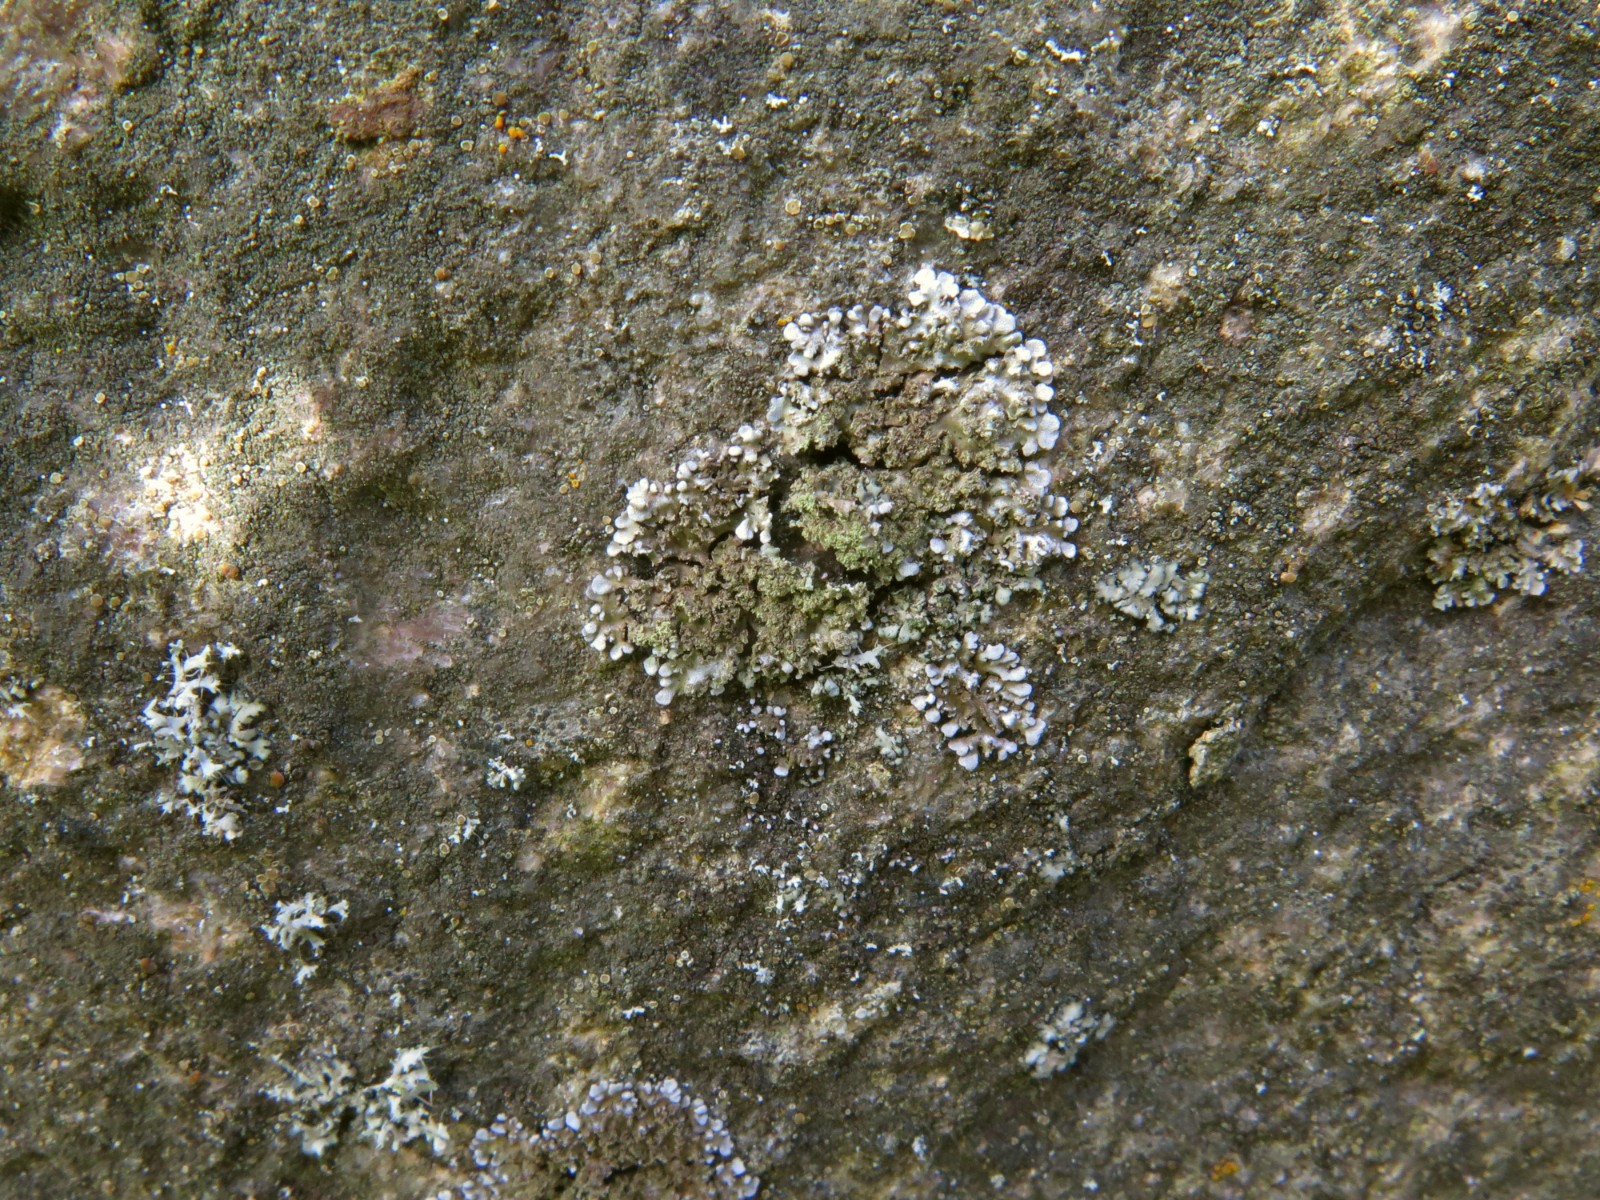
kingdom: Fungi
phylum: Ascomycota
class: Lecanoromycetes
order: Caliciales
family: Physciaceae
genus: Physconia
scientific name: Physconia enteroxantha
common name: grynet dugrosetlav
